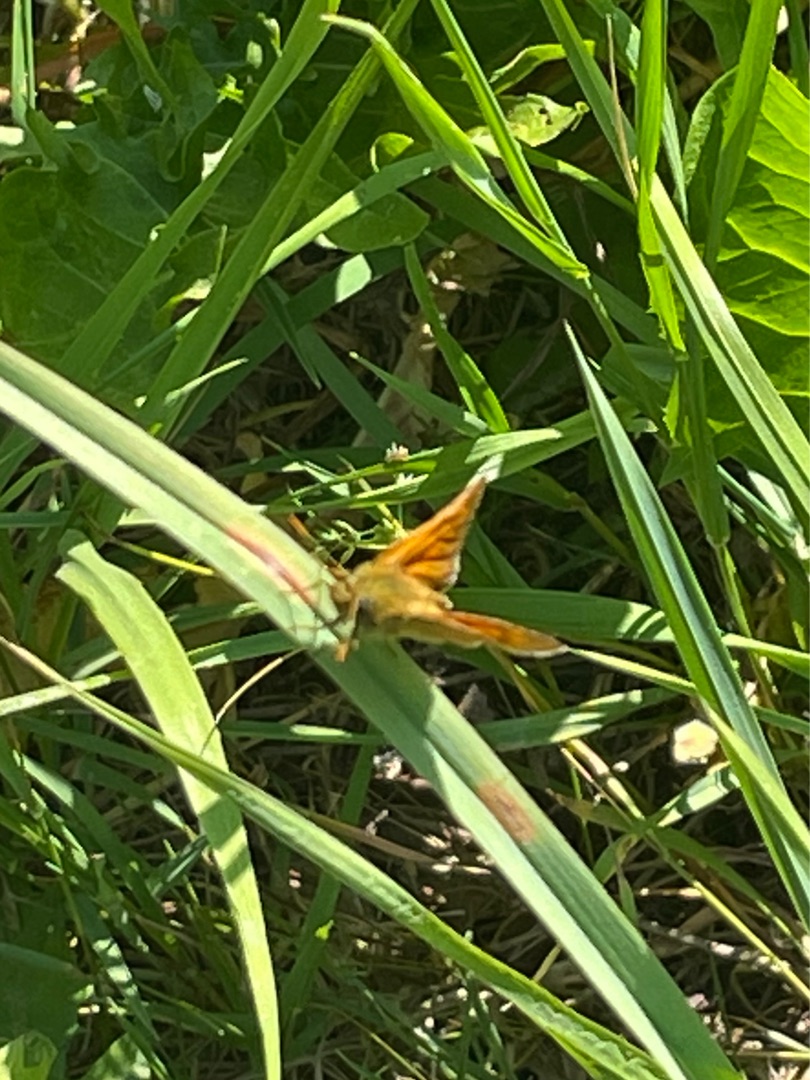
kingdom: Animalia
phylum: Arthropoda
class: Insecta
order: Lepidoptera
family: Hesperiidae
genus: Ochlodes
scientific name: Ochlodes venata
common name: Stor bredpande
